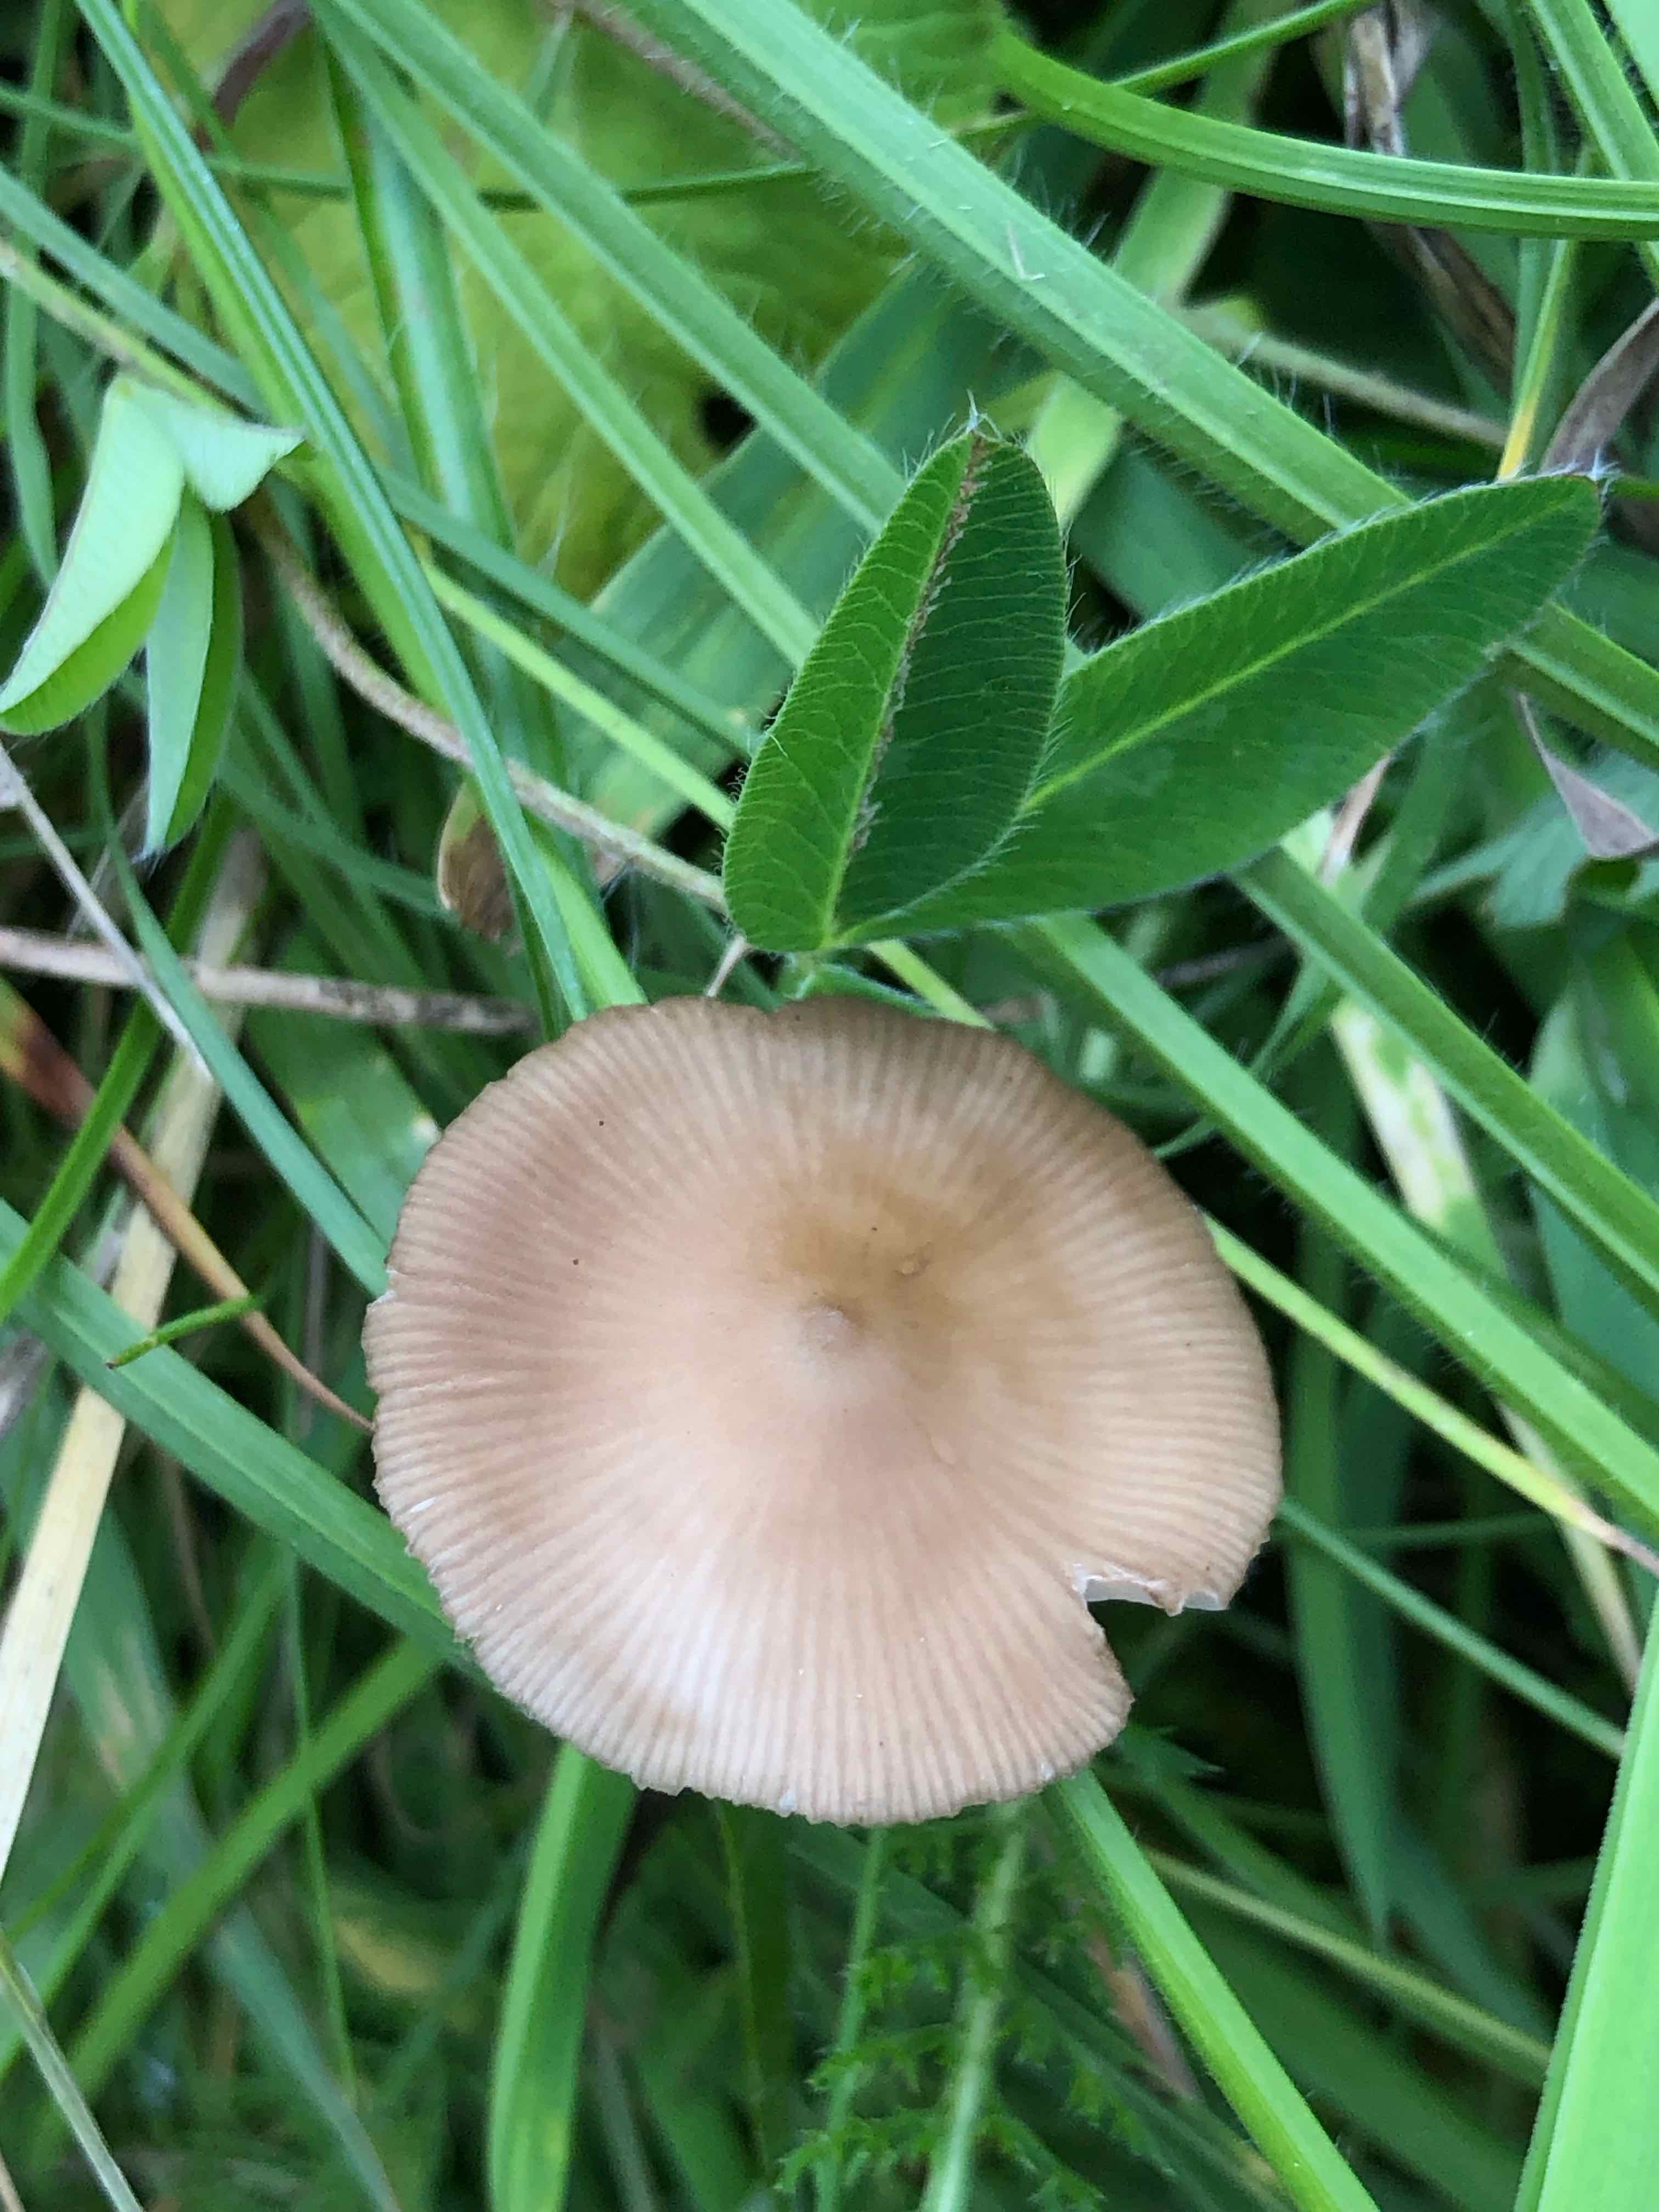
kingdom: Fungi
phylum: Basidiomycota
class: Agaricomycetes
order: Agaricales
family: Entolomataceae
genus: Entoloma
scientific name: Entoloma
